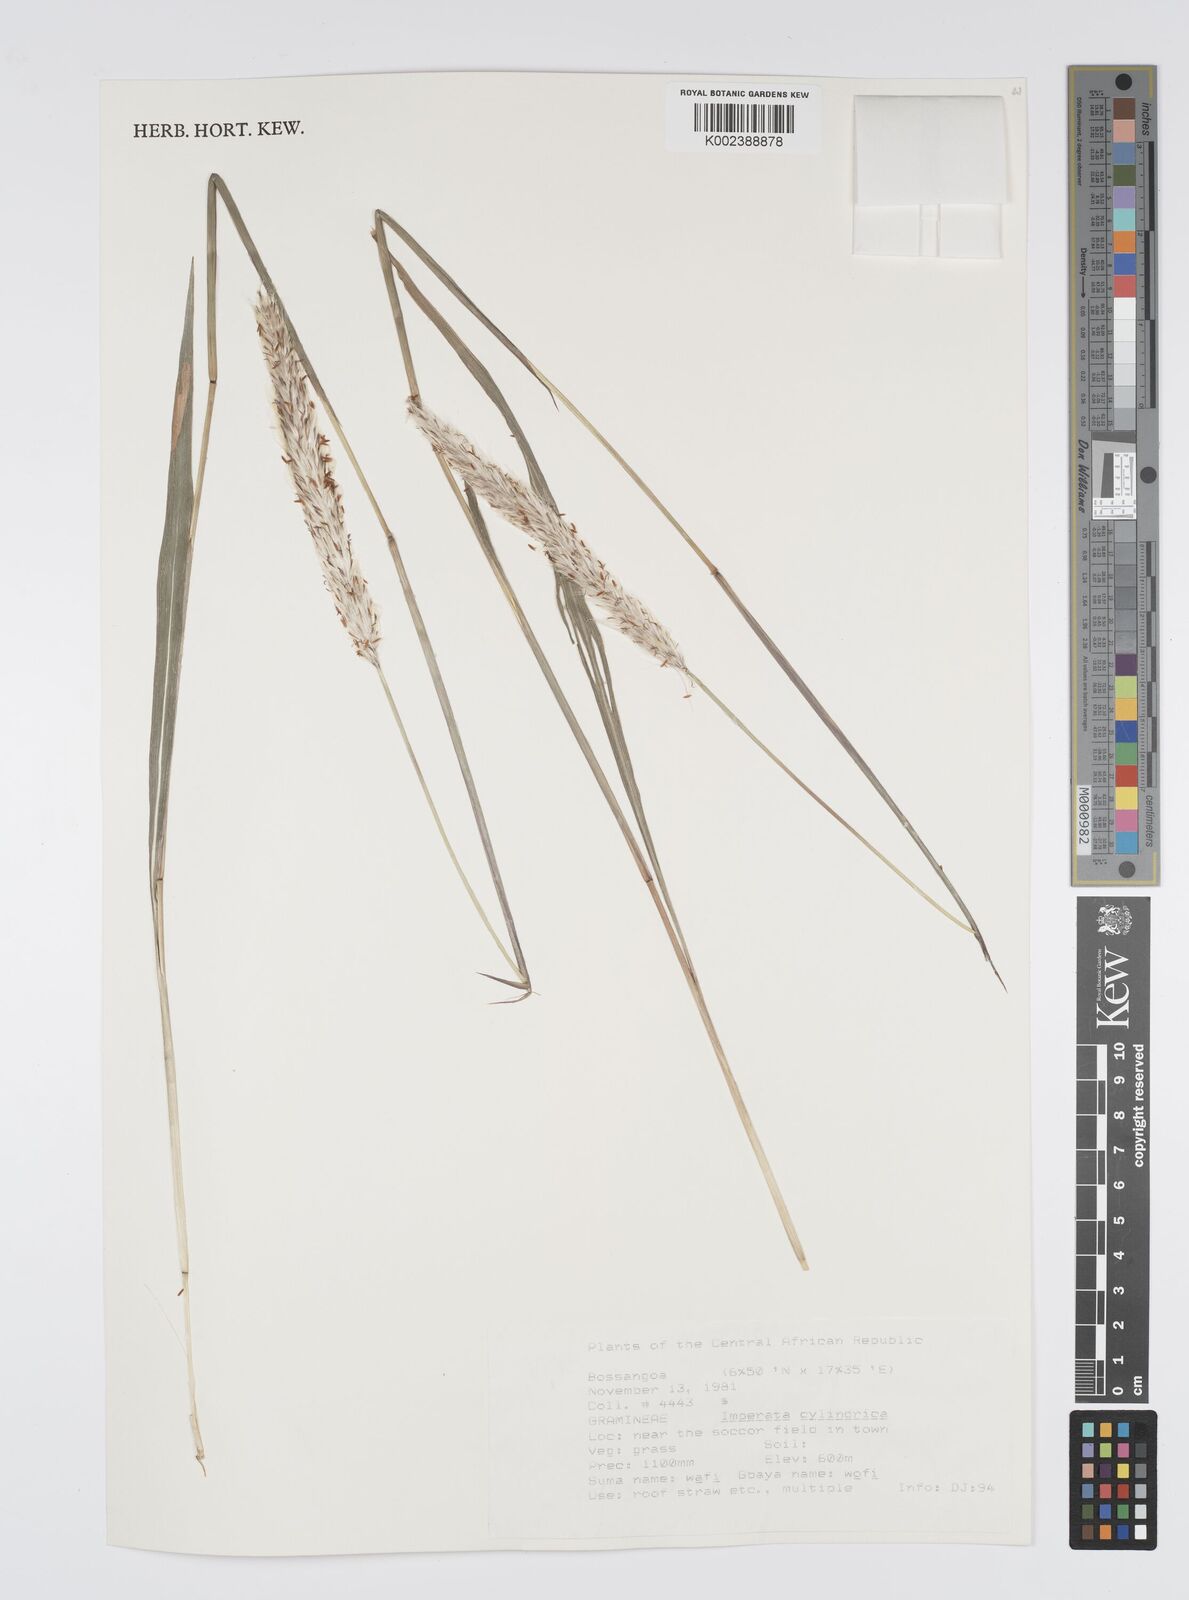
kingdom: Plantae
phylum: Tracheophyta
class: Liliopsida
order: Poales
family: Poaceae
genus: Imperata
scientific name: Imperata cylindrica
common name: Cogongrass
